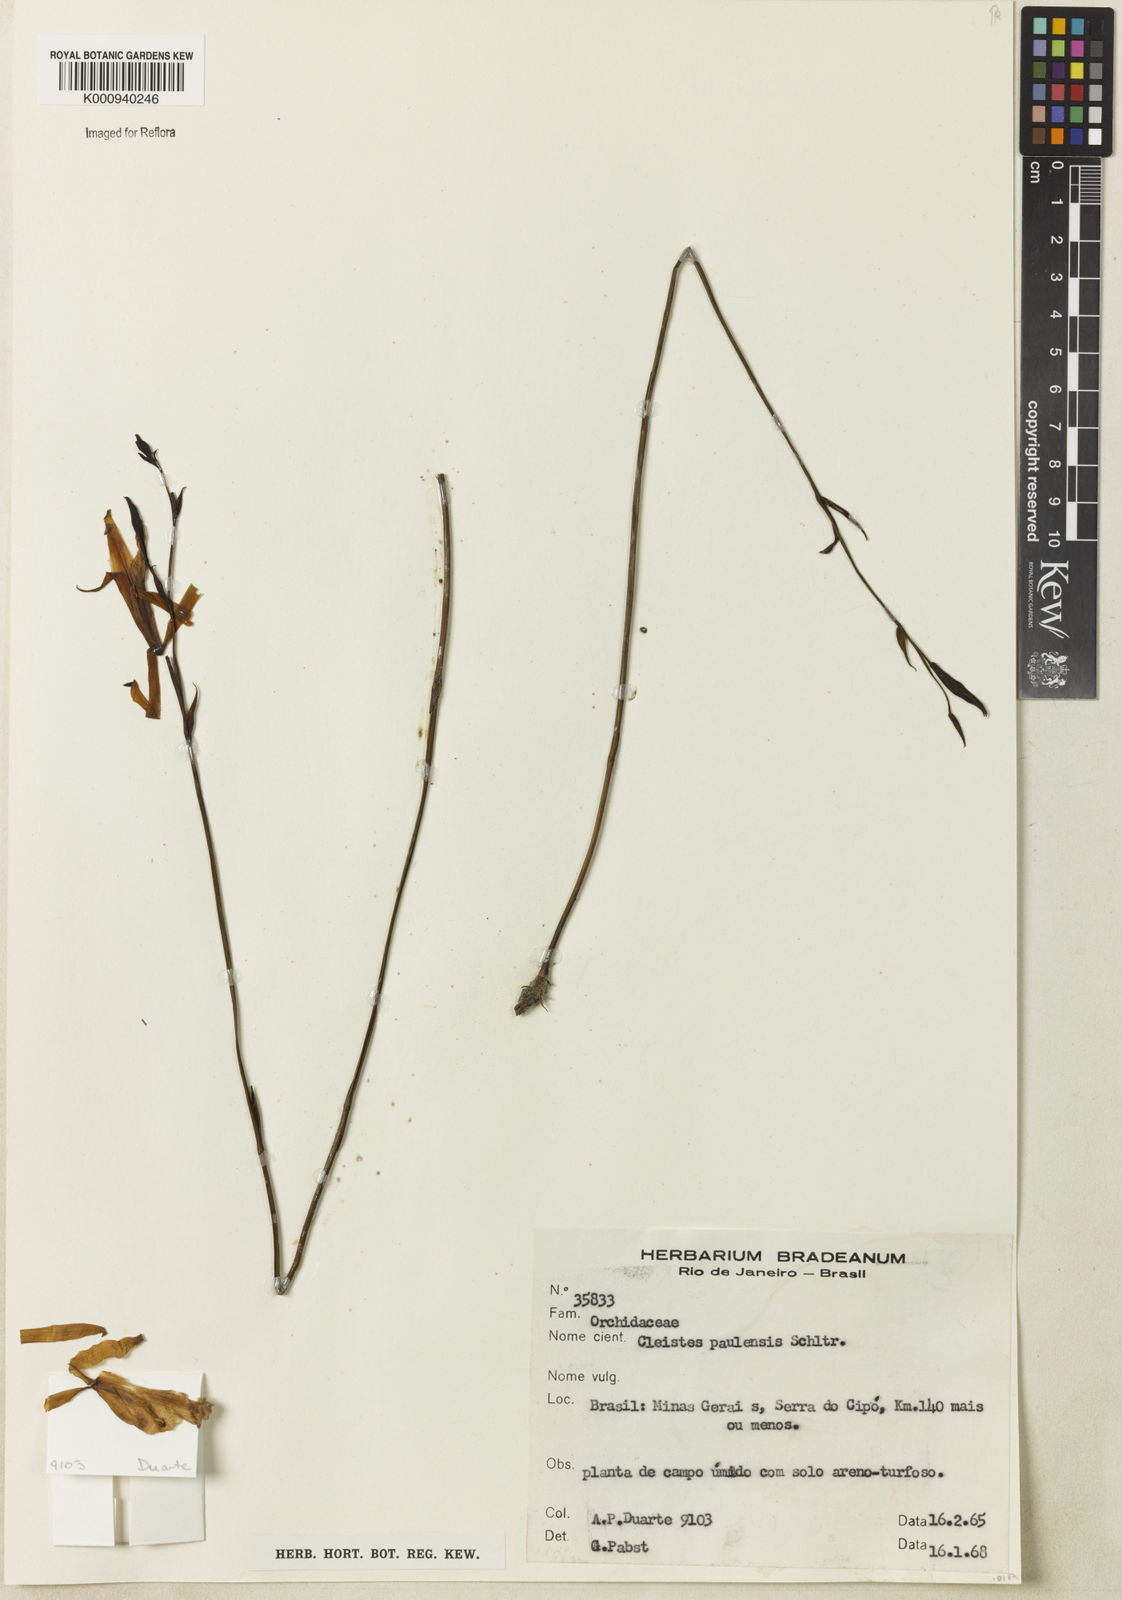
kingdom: Plantae
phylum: Tracheophyta
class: Liliopsida
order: Asparagales
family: Orchidaceae
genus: Cleistes
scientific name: Cleistes paulensis
